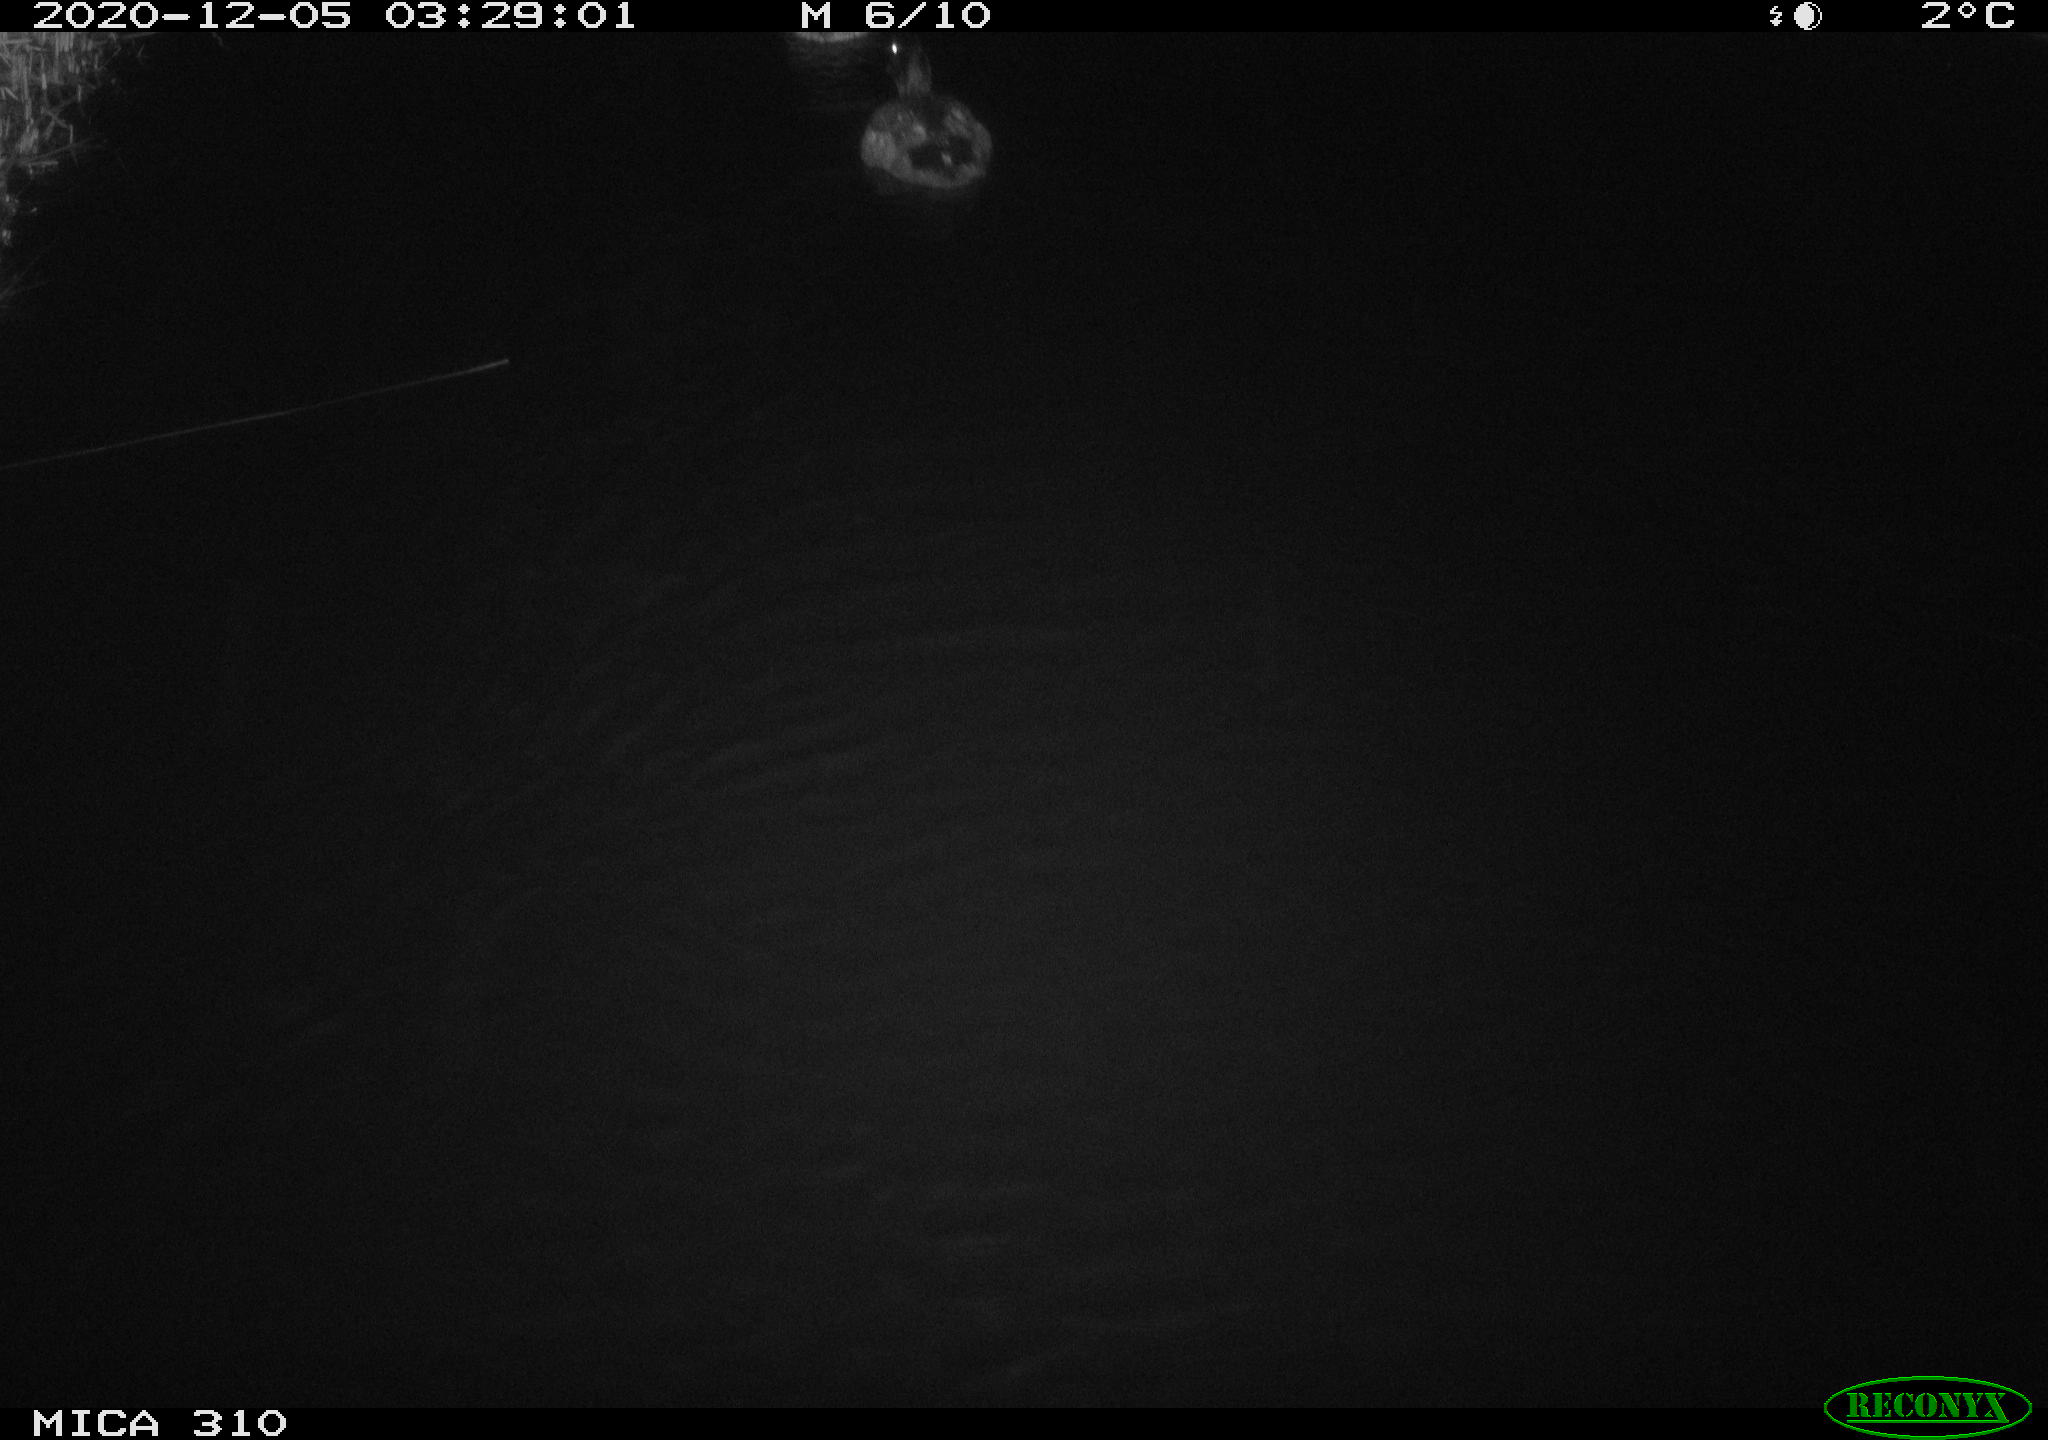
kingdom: Animalia
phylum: Chordata
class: Aves
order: Anseriformes
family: Anatidae
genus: Anas
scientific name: Anas platyrhynchos
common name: Mallard
